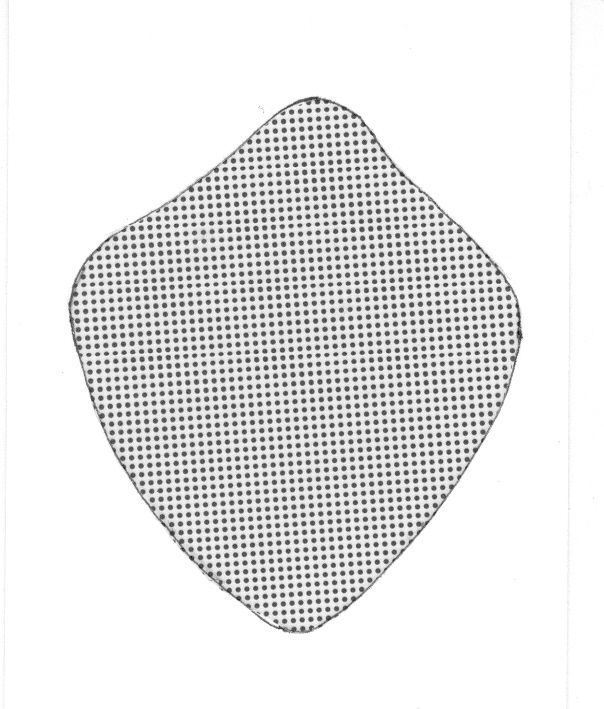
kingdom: Animalia
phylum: Chordata
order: Perciformes
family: Serranidae
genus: Odontanthias
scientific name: Odontanthias rhodopeplus
